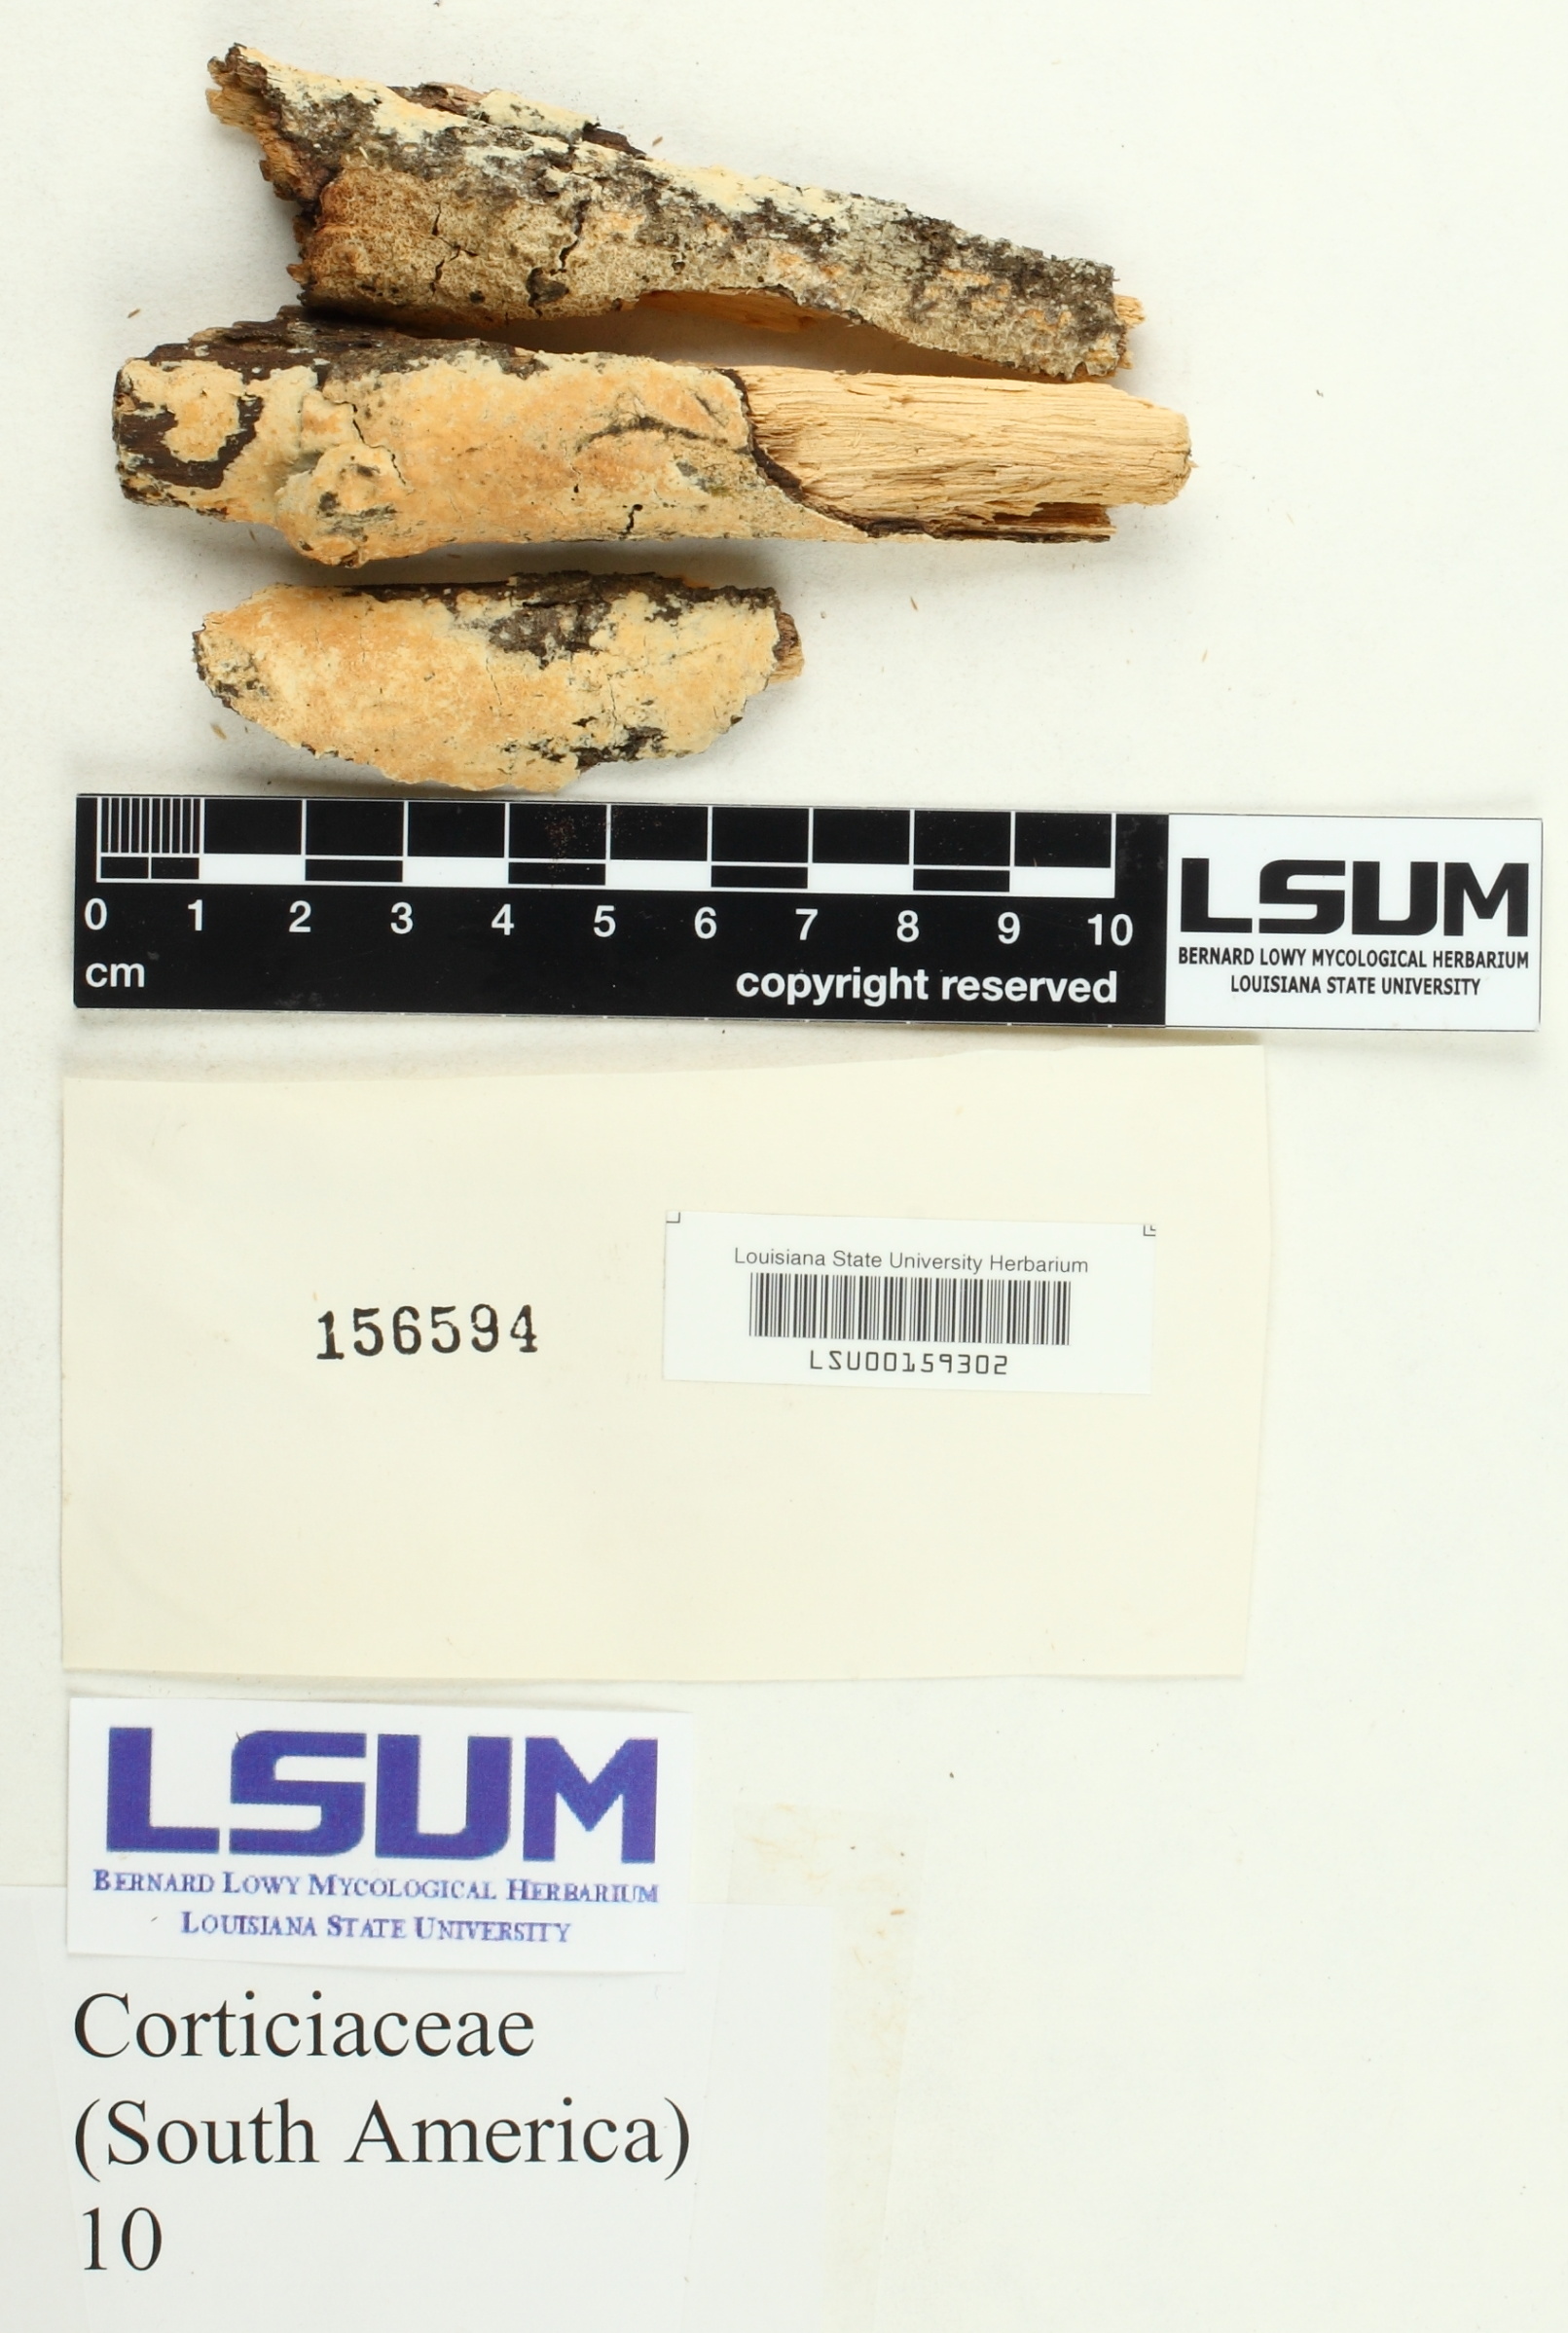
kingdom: Fungi
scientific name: Fungi
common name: Fungi
